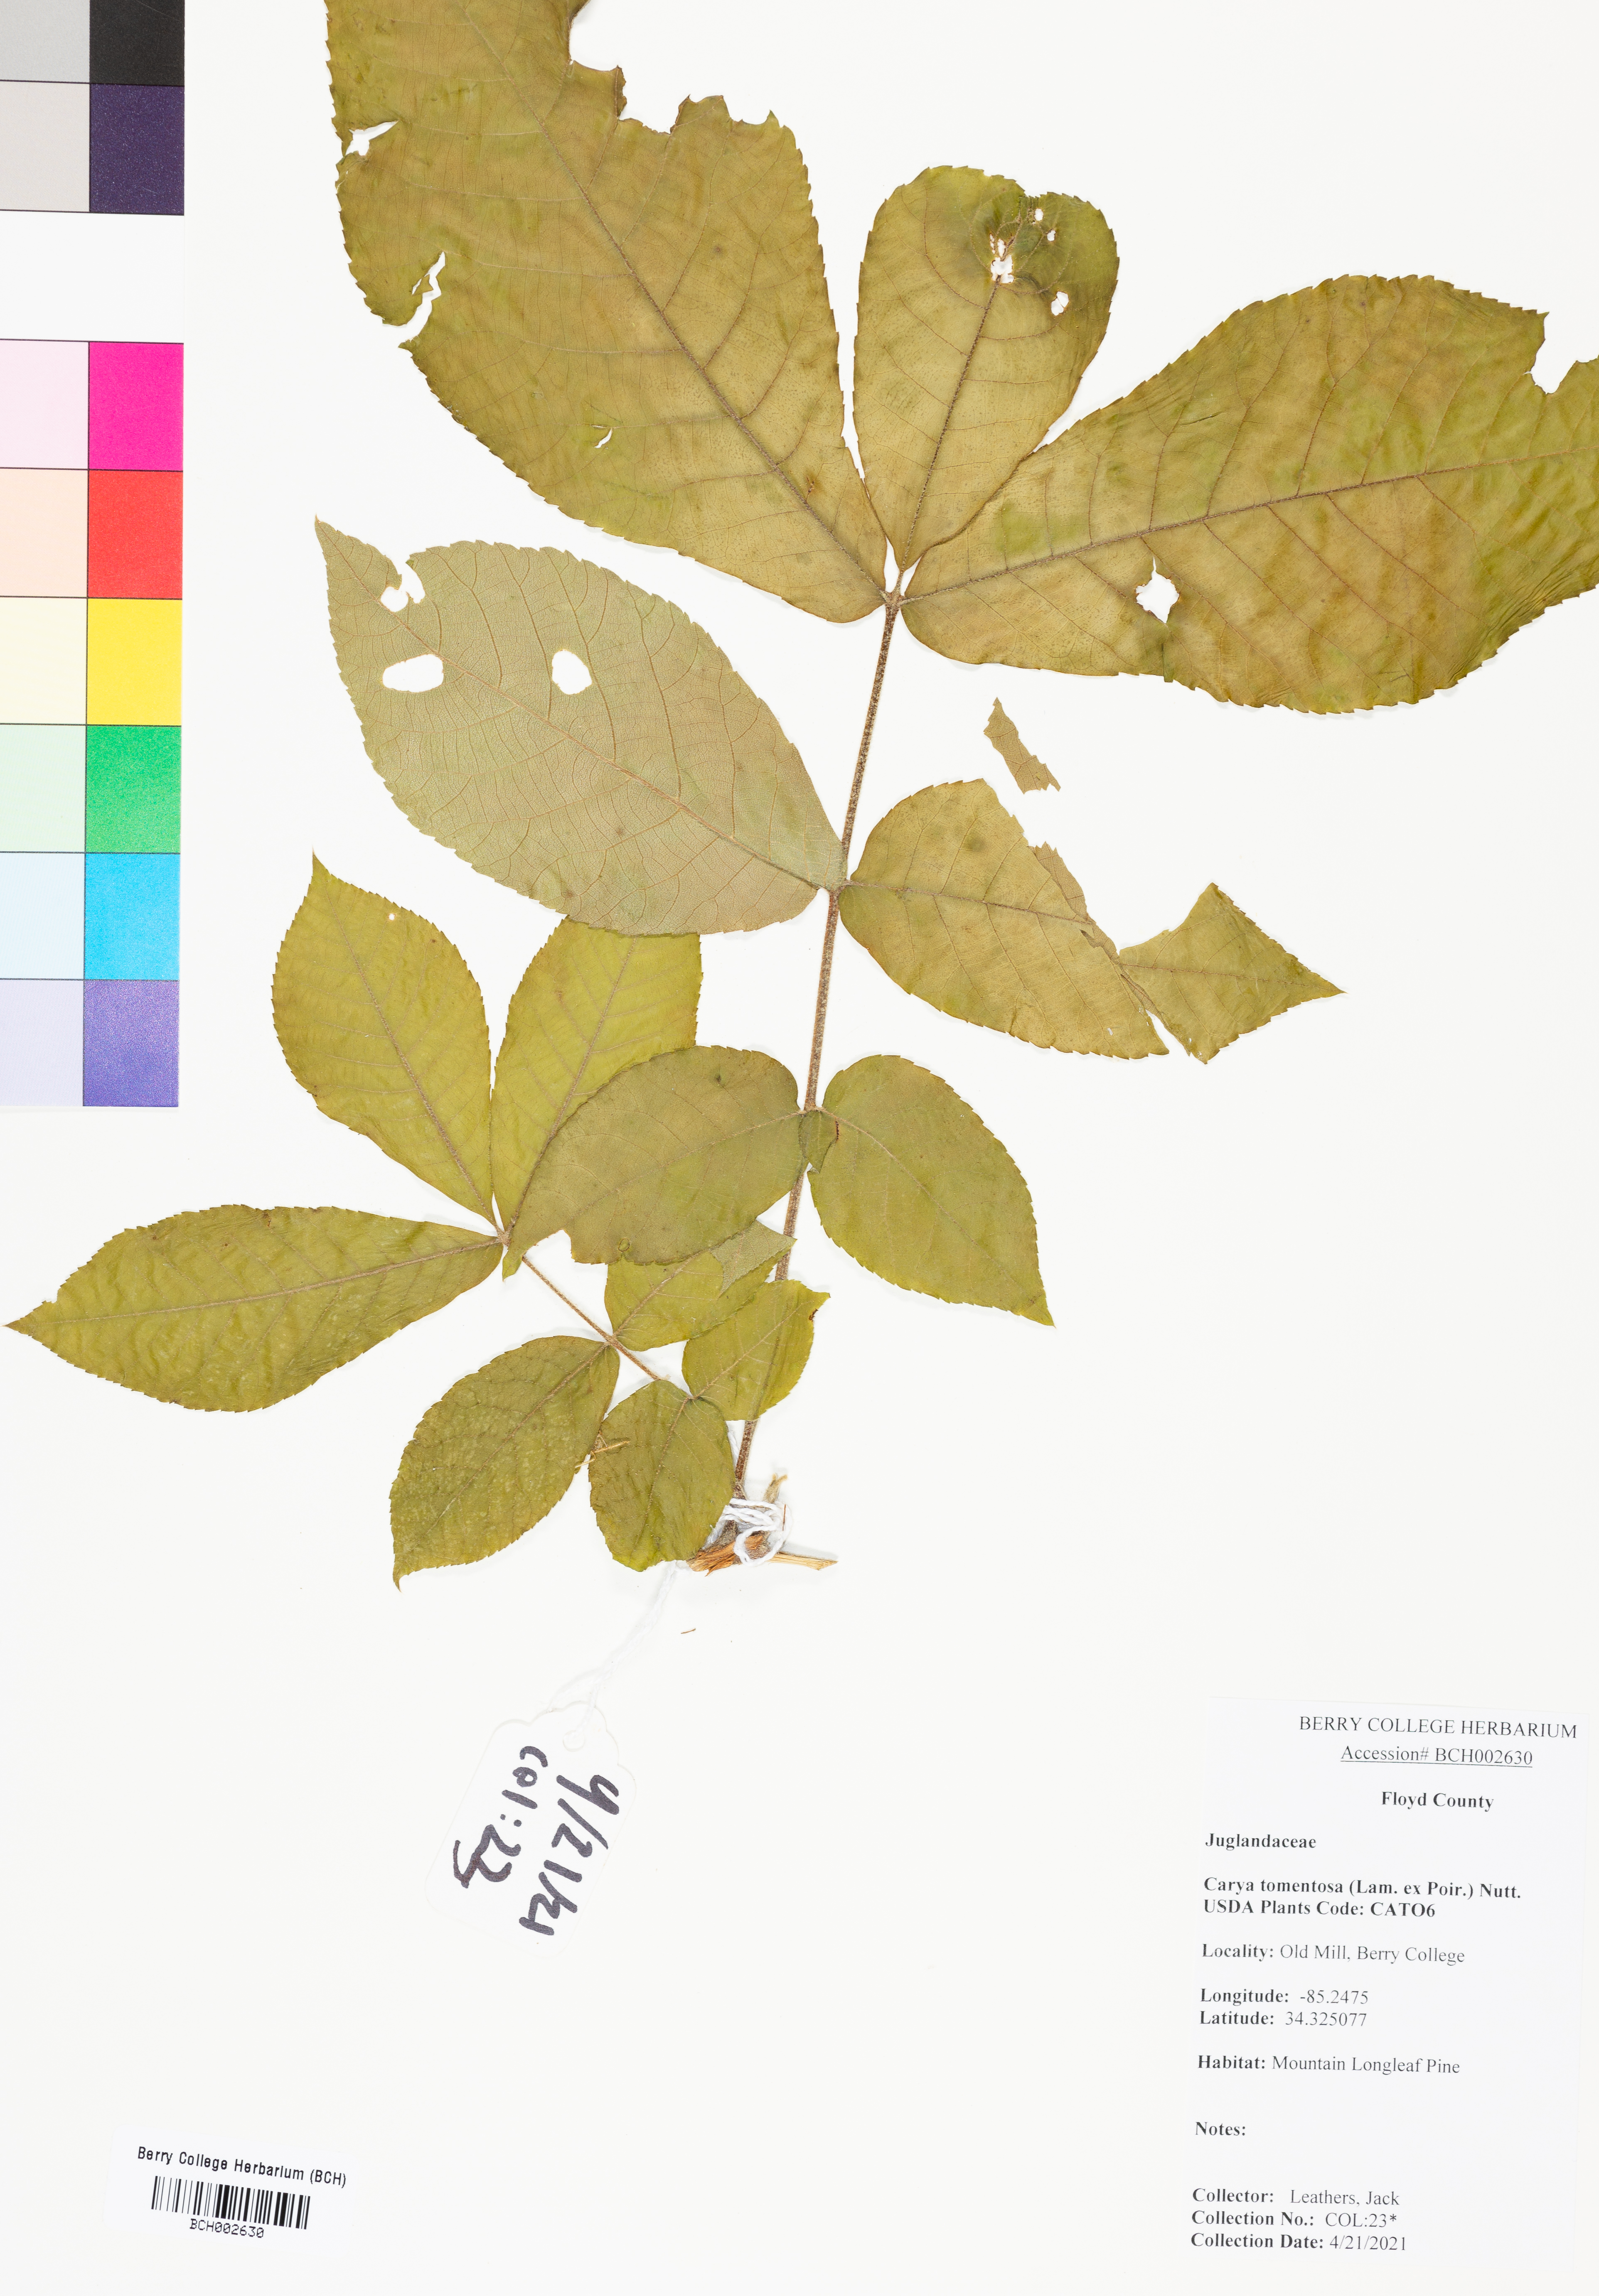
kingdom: Plantae
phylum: Tracheophyta
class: Magnoliopsida
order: Fagales
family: Juglandaceae
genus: Carya
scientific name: Carya alba
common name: Mockernut hickory
